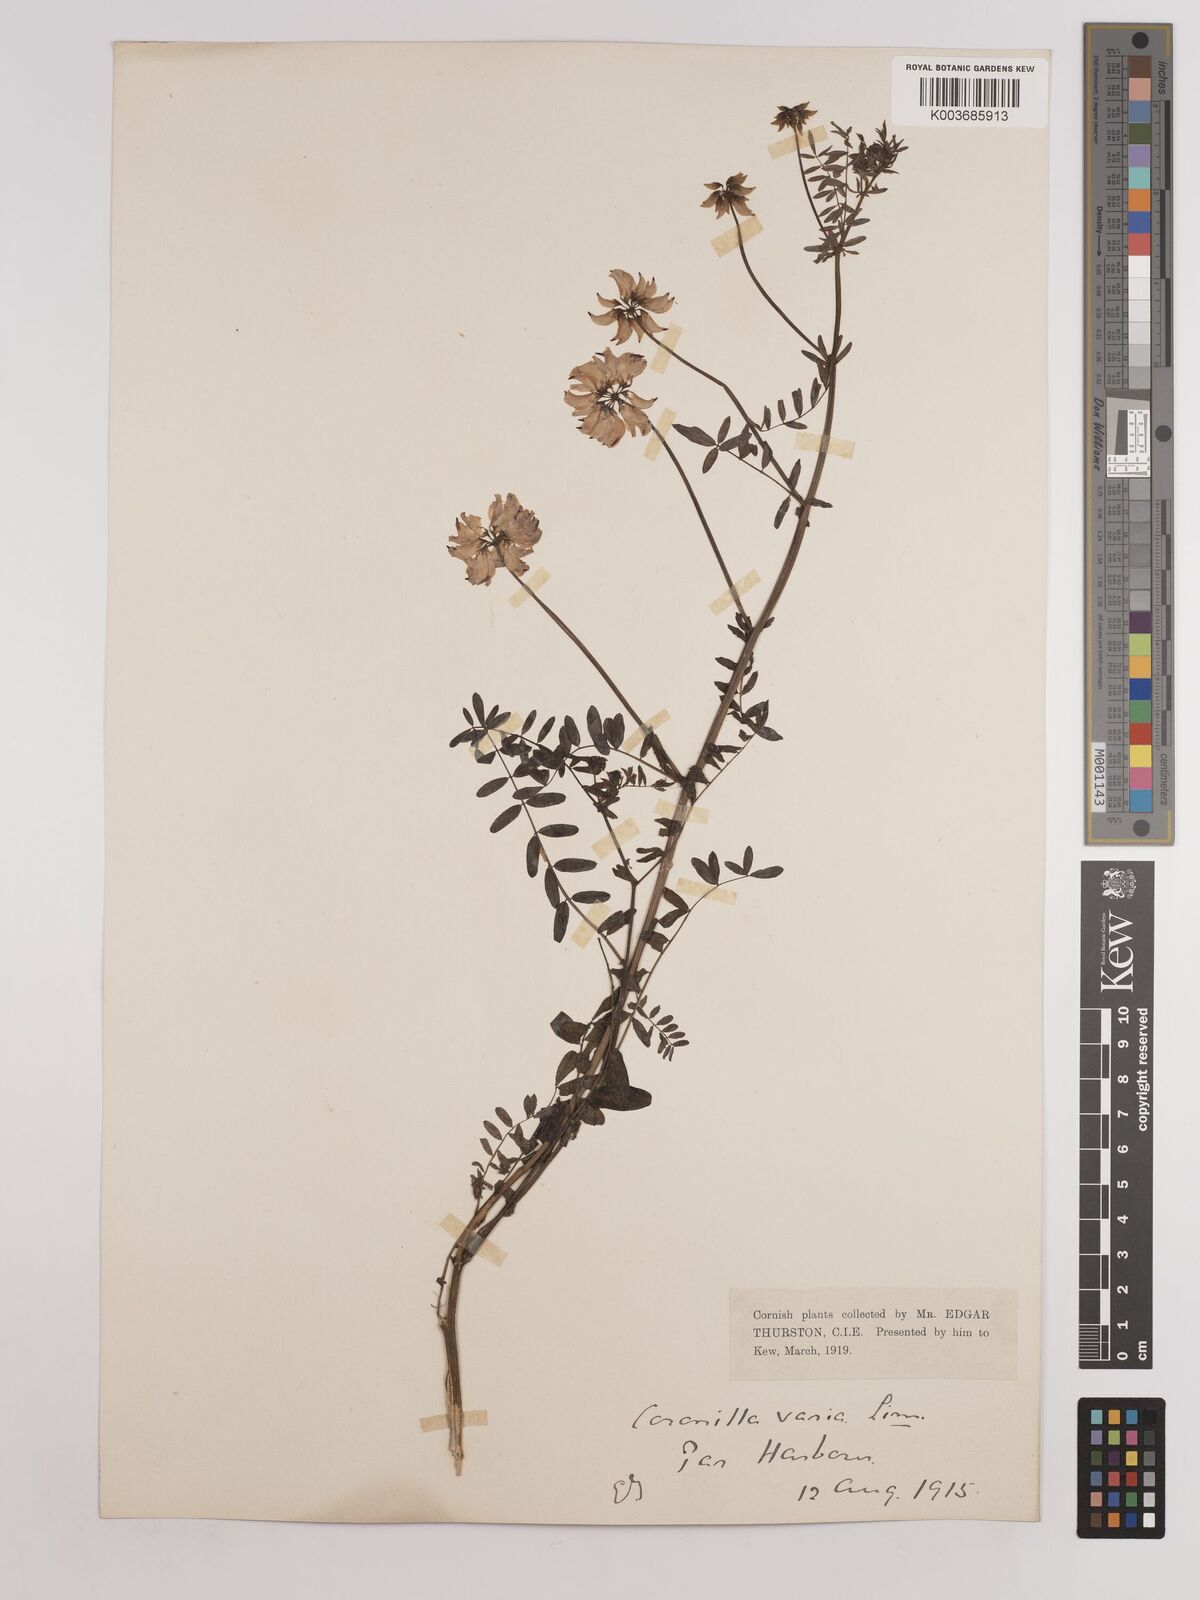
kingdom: Plantae
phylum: Tracheophyta
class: Magnoliopsida
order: Fabales
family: Fabaceae
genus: Coronilla
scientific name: Coronilla varia
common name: Crownvetch
